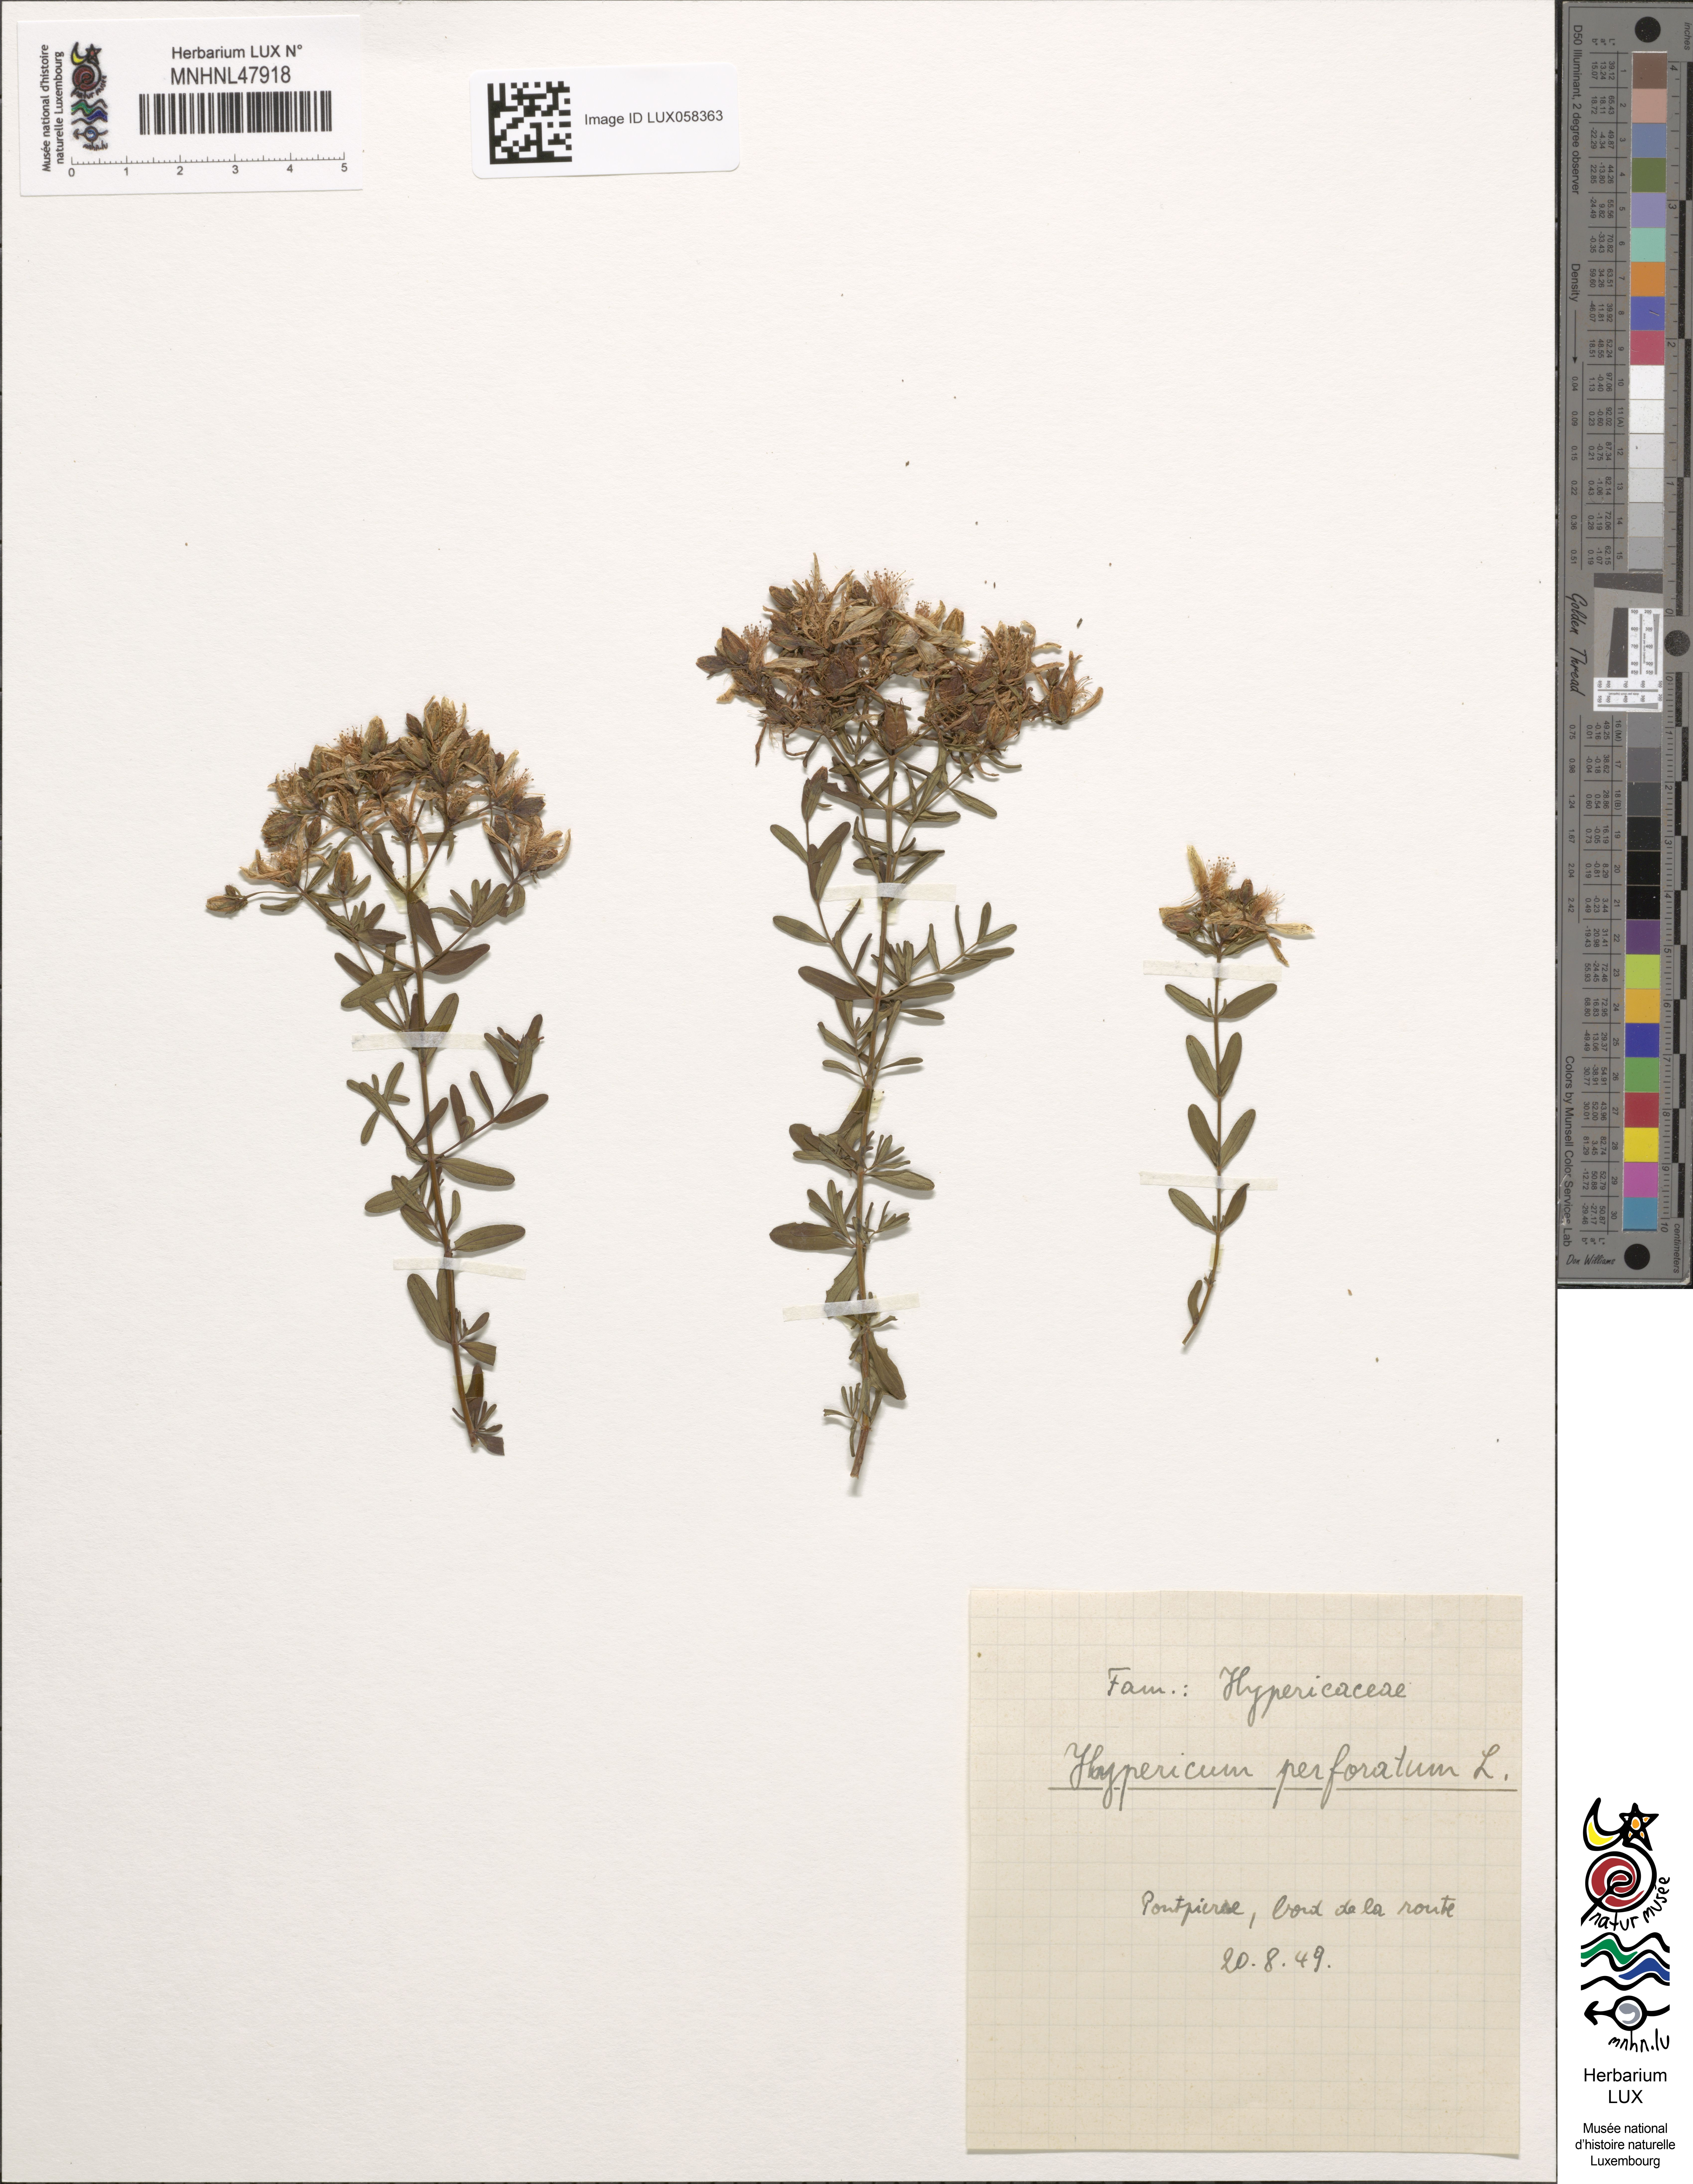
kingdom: Plantae
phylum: Tracheophyta
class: Magnoliopsida
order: Malpighiales
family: Hypericaceae
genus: Hypericum
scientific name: Hypericum perforatum
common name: Common st. johnswort
